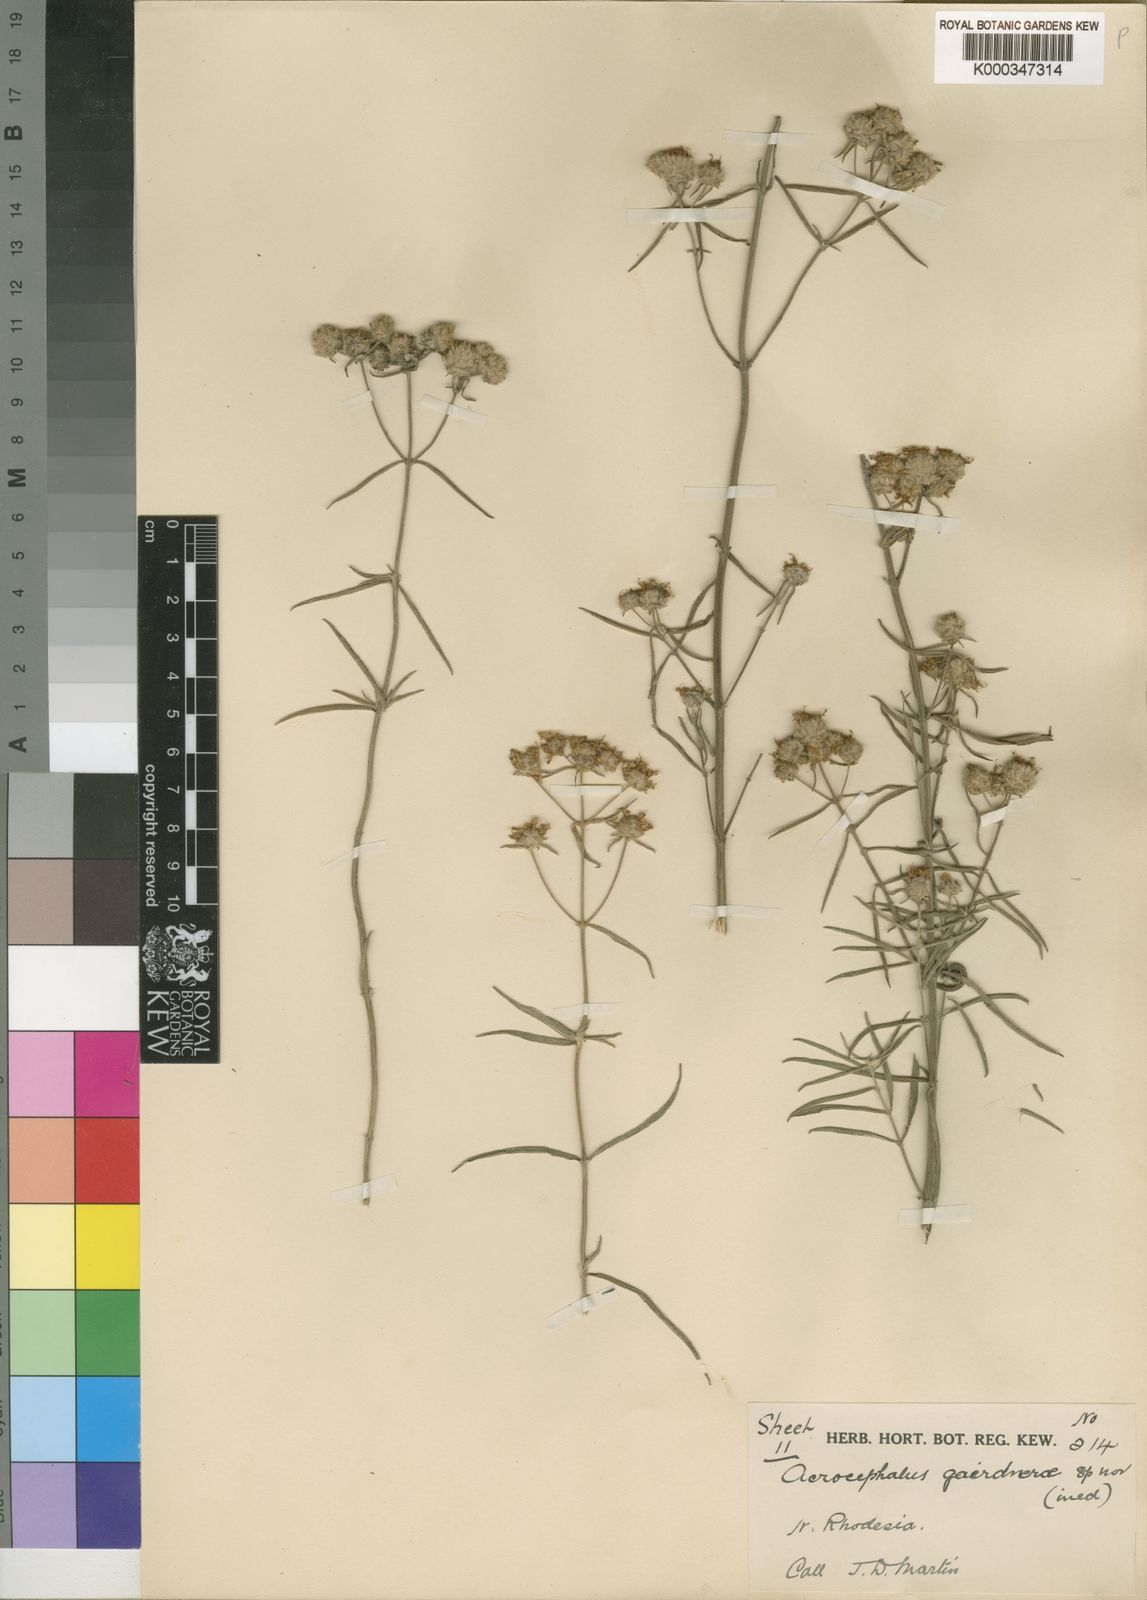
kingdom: Plantae
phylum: Tracheophyta
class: Magnoliopsida
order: Lamiales
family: Lamiaceae
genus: Haumaniastrum
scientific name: Haumaniastrum sericeum
